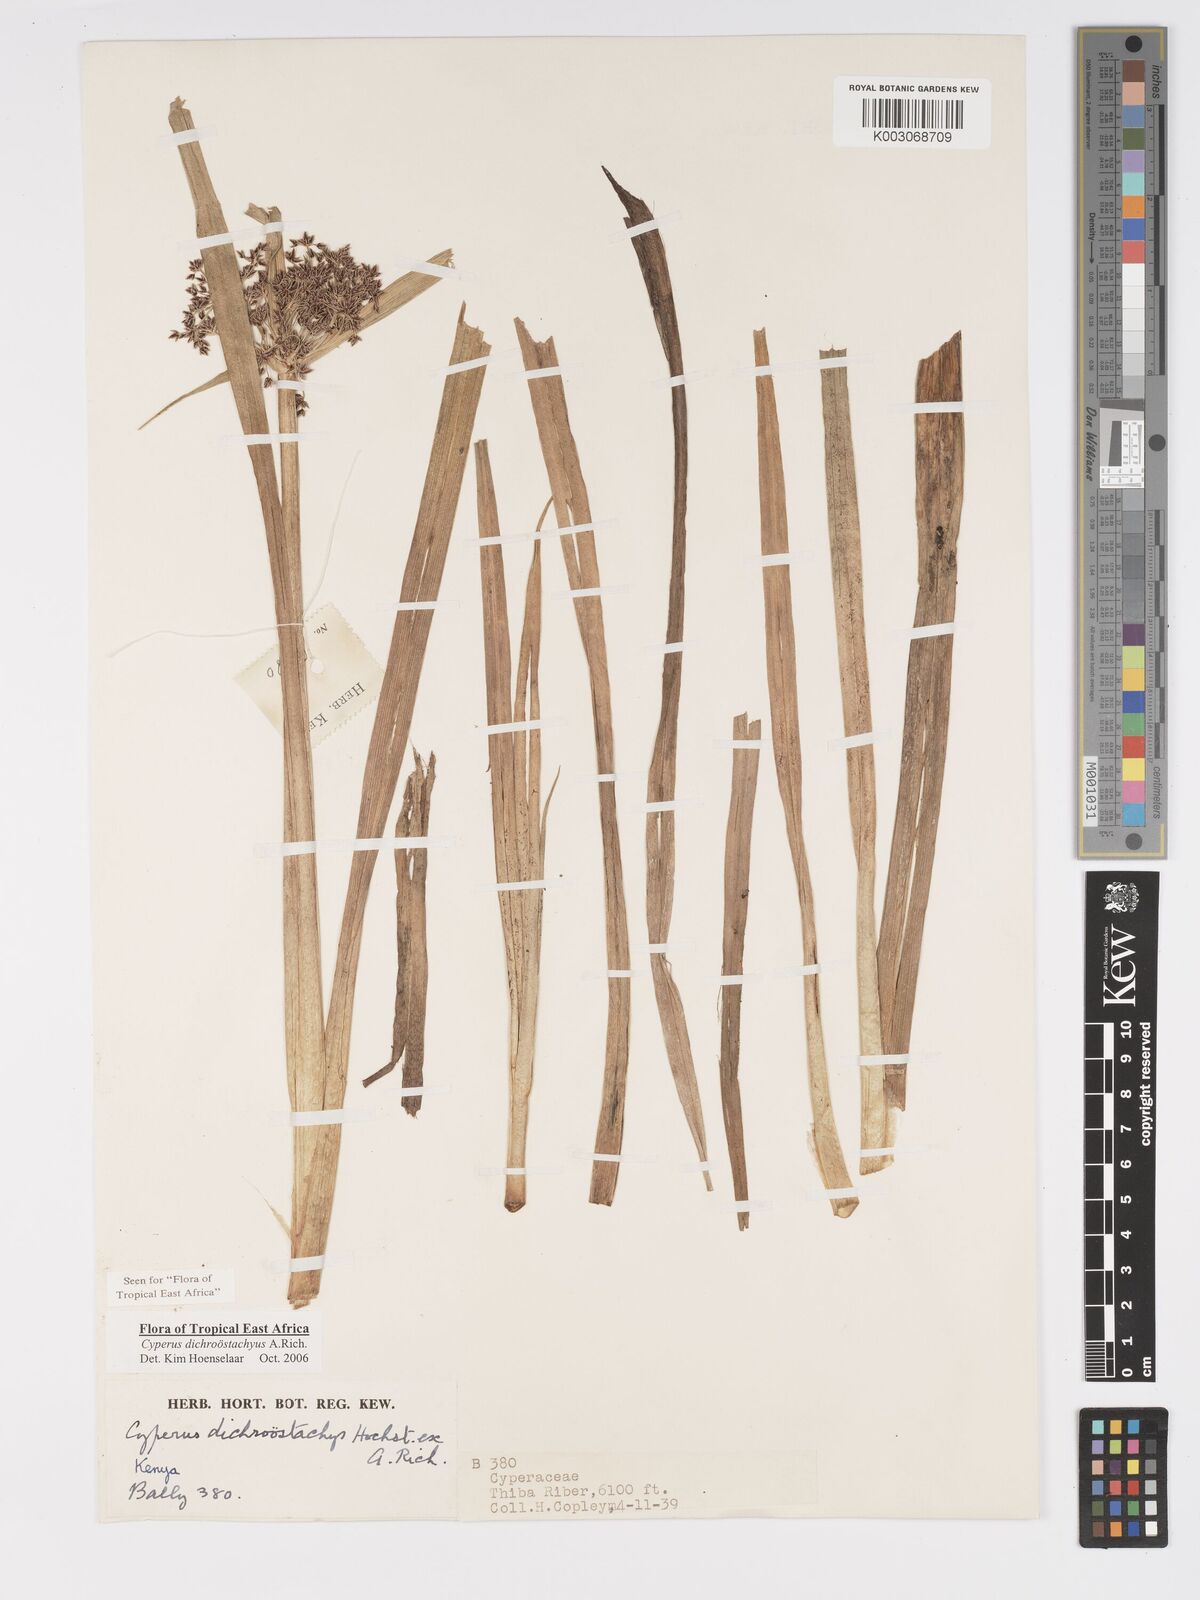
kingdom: Plantae
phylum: Tracheophyta
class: Liliopsida
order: Poales
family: Cyperaceae
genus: Cyperus
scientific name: Cyperus dichrostachyus
